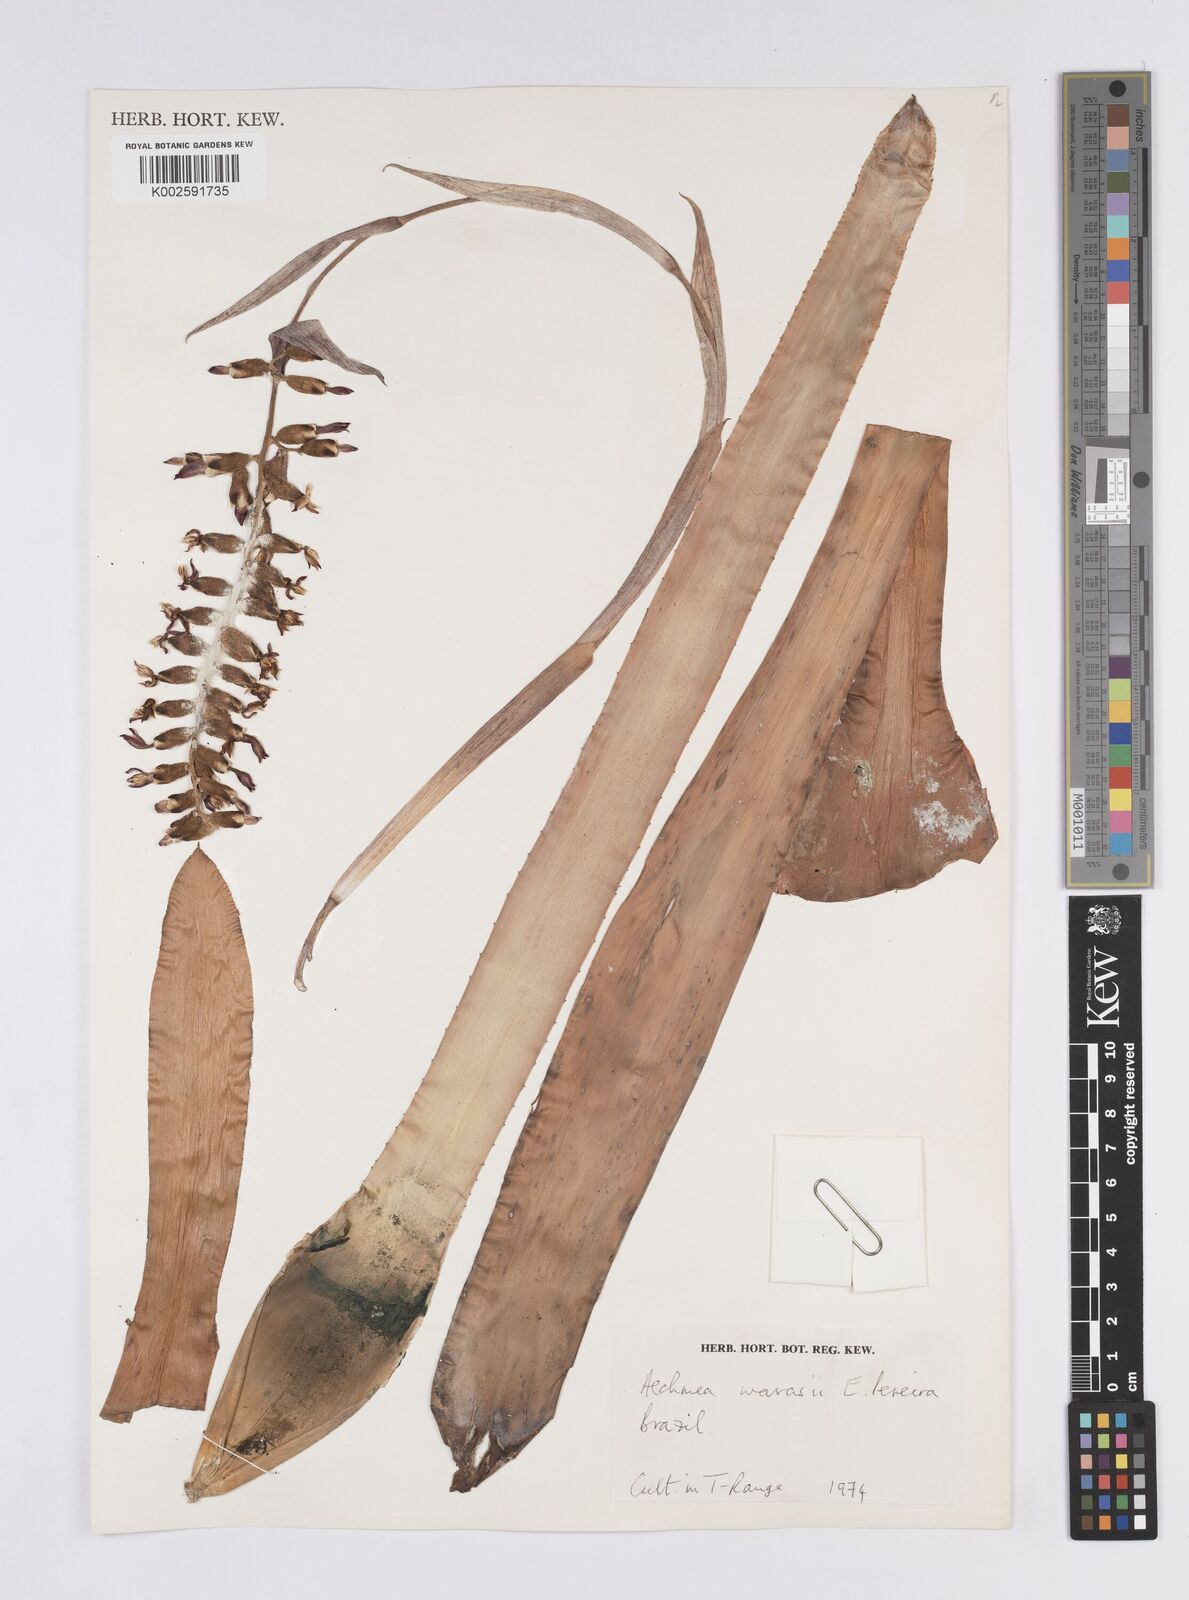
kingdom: Plantae
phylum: Tracheophyta
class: Liliopsida
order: Poales
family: Bromeliaceae
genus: Aechmea
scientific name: Aechmea warasii
